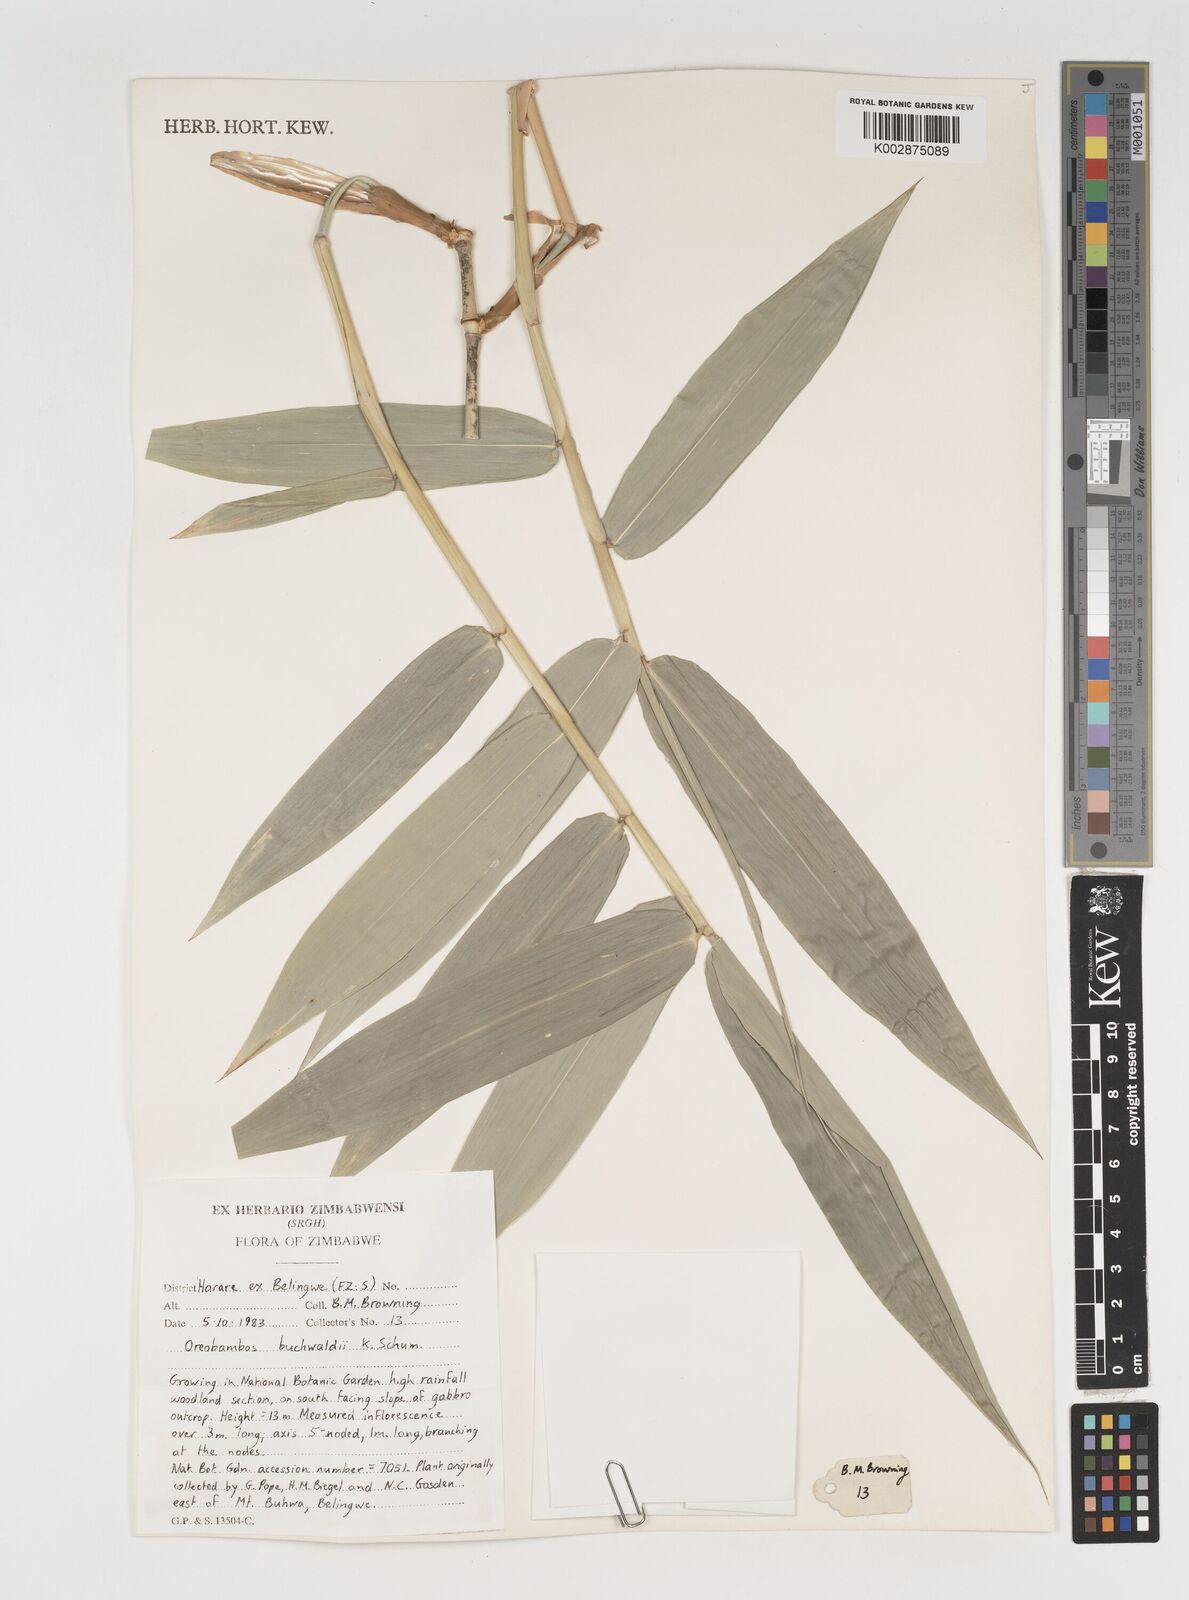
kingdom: Plantae
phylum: Tracheophyta
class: Liliopsida
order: Poales
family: Poaceae
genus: Oreobambos
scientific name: Oreobambos buchwaldii
